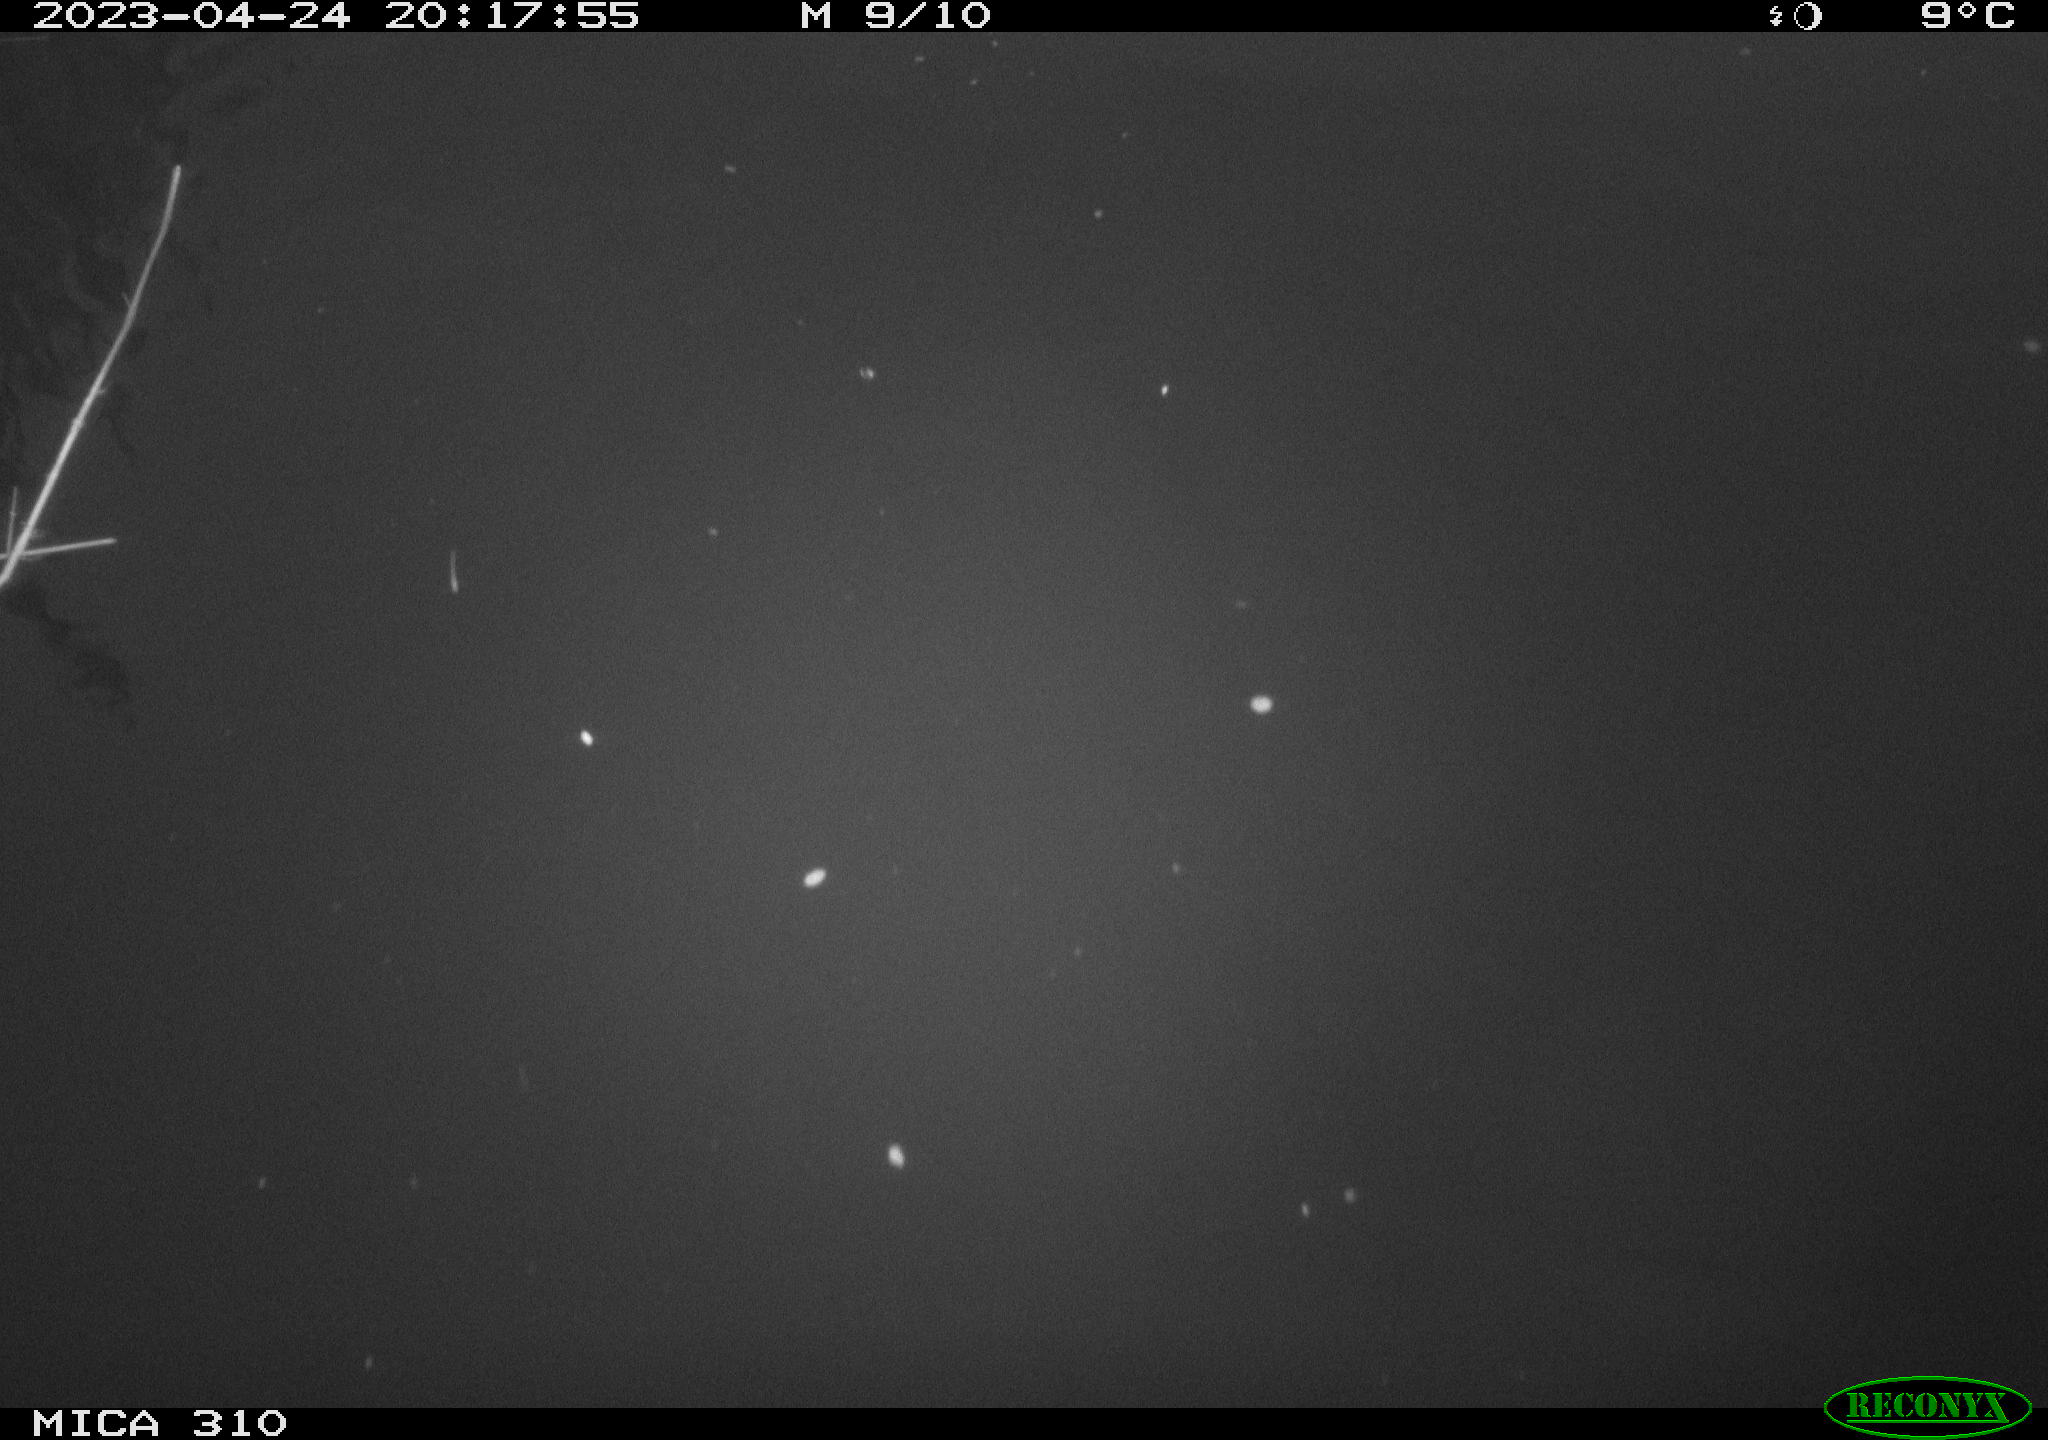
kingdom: Animalia
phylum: Chordata
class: Aves
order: Anseriformes
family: Anatidae
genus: Anas
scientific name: Anas
